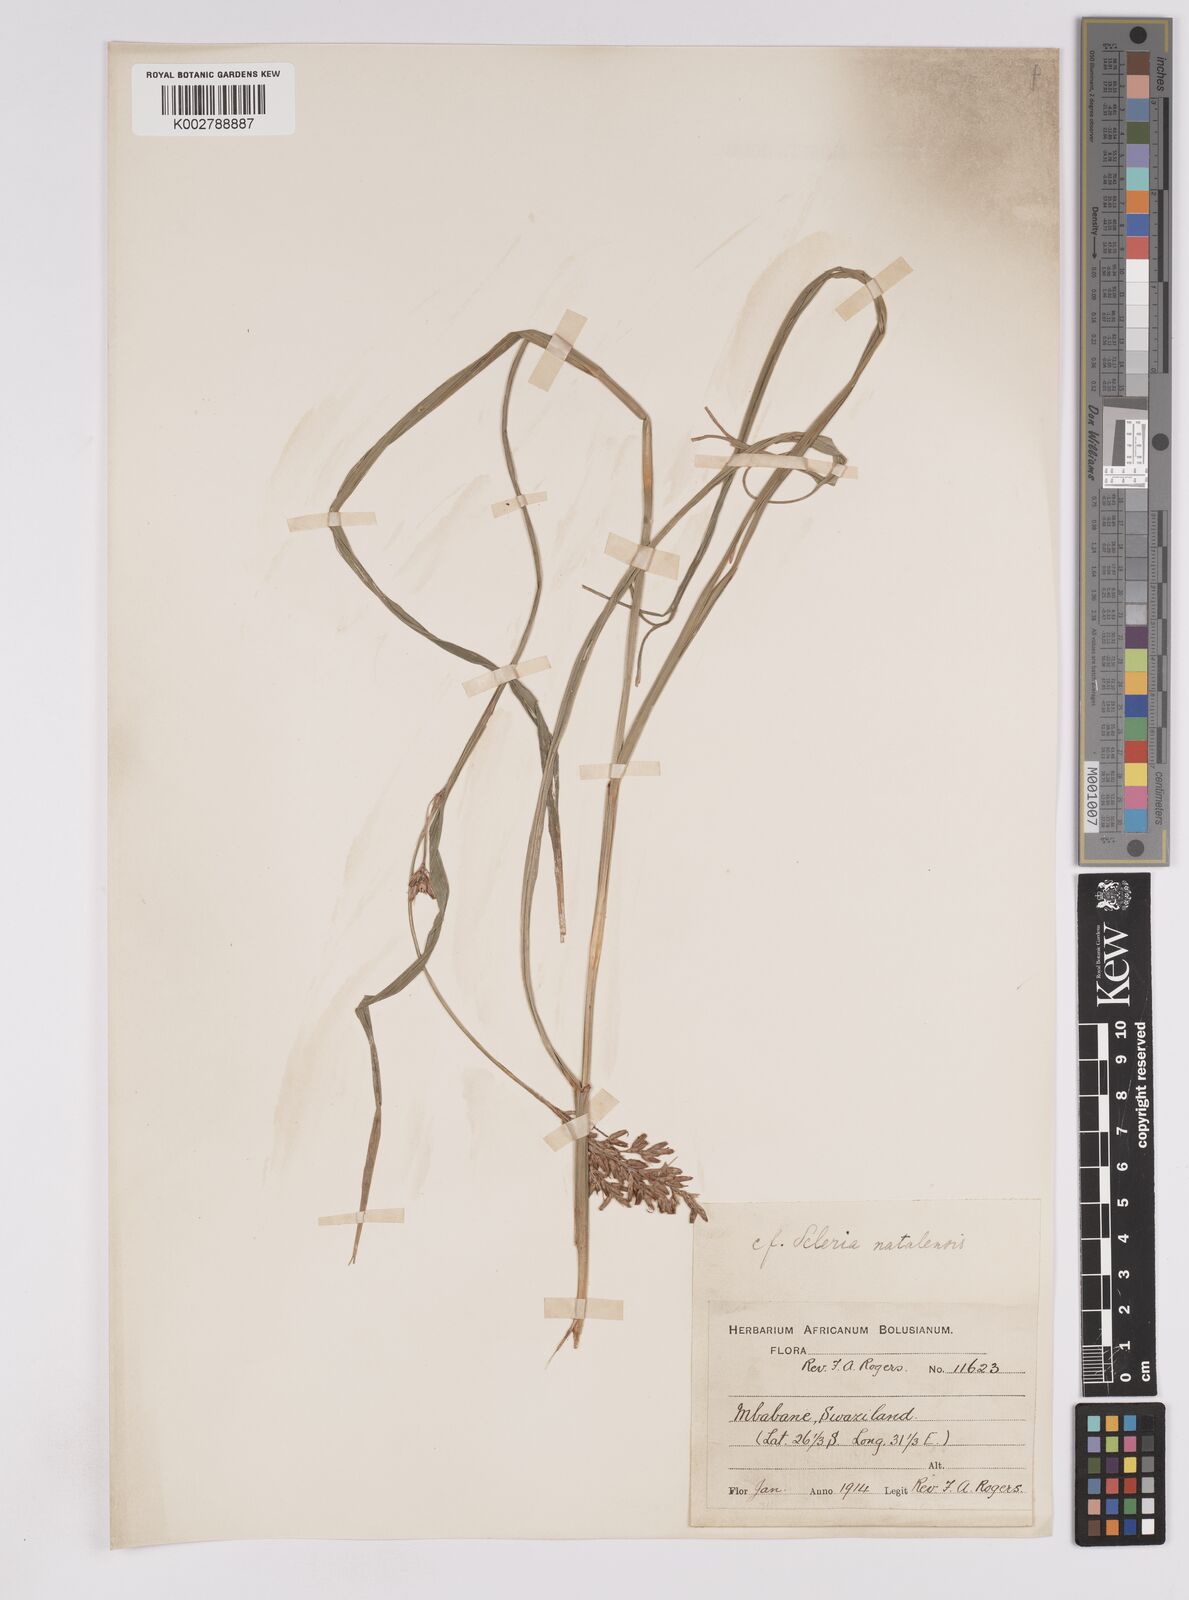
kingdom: Plantae
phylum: Tracheophyta
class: Liliopsida
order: Poales
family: Cyperaceae
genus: Scleria
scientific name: Scleria transvaalensis
